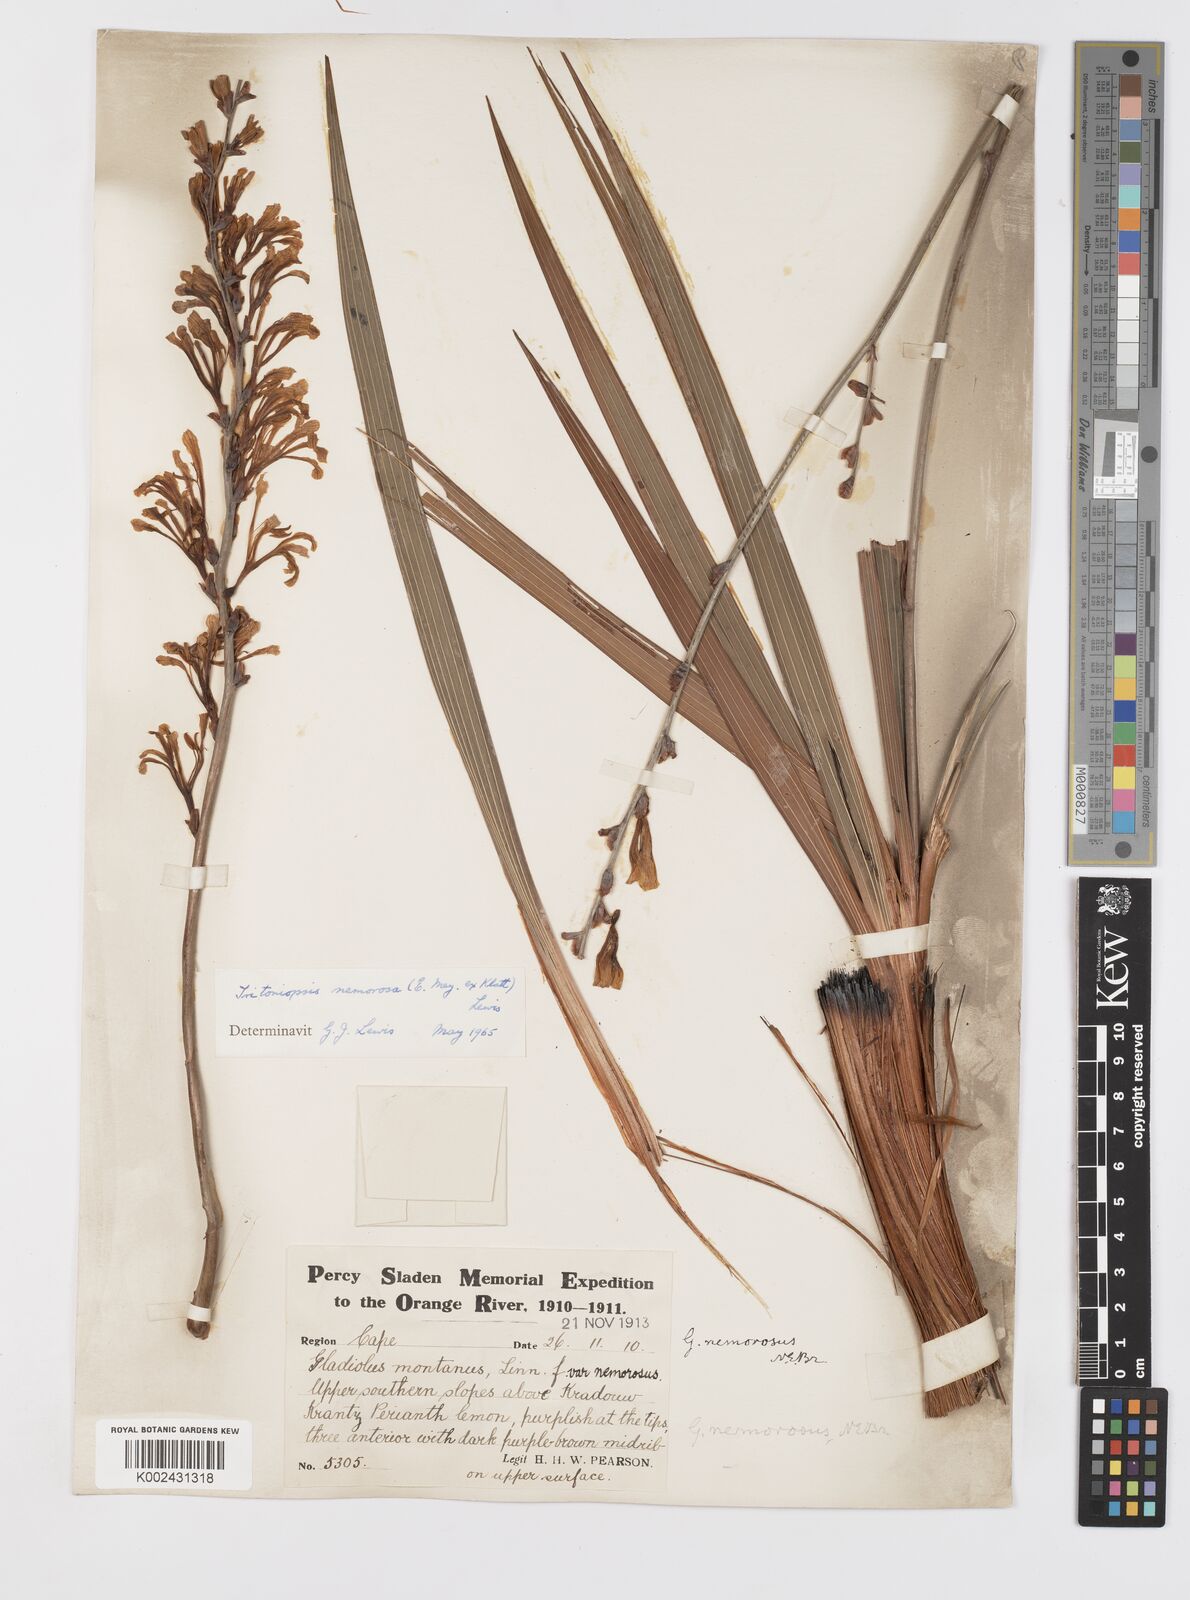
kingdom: Plantae
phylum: Tracheophyta
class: Liliopsida
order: Asparagales
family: Iridaceae
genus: Tritoniopsis
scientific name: Tritoniopsis nemorosa
